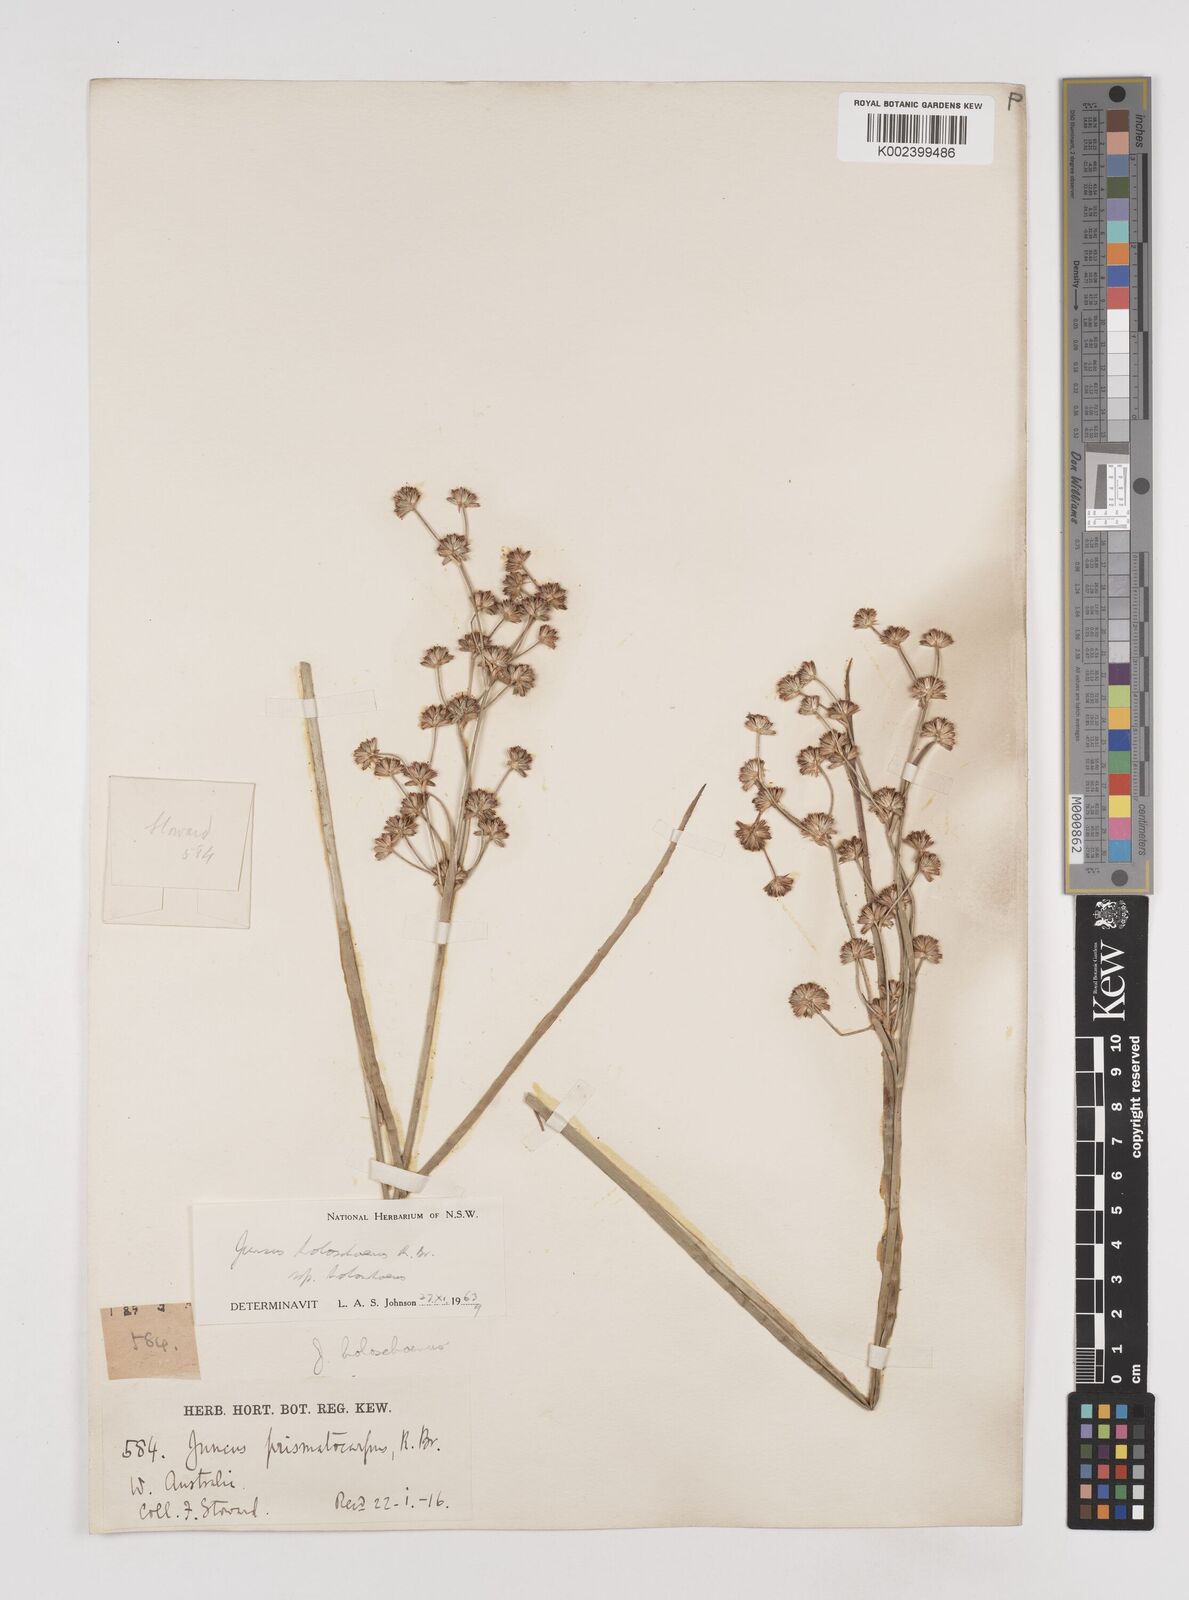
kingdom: Plantae
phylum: Tracheophyta
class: Liliopsida
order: Poales
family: Juncaceae
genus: Juncus
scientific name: Juncus holoschoenus
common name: Joint-leaf rush
